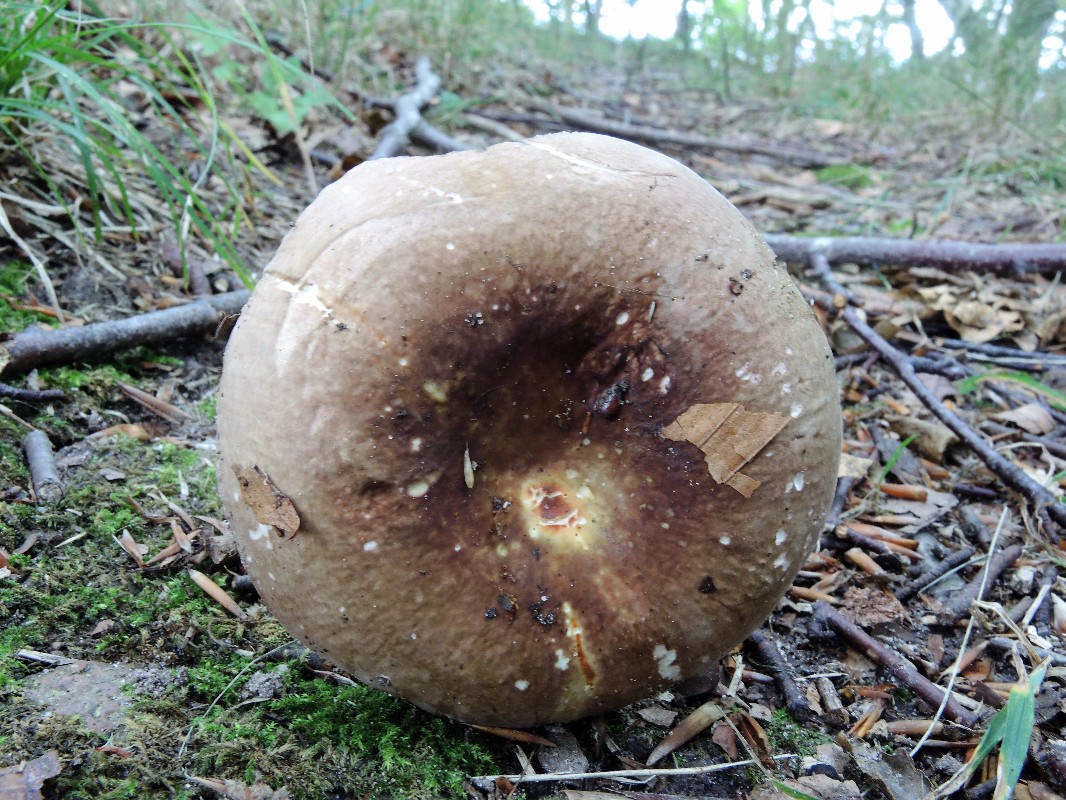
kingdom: Fungi
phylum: Basidiomycota
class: Agaricomycetes
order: Russulales
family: Russulaceae
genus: Russula
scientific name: Russula olivacea
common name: stor skørhat
